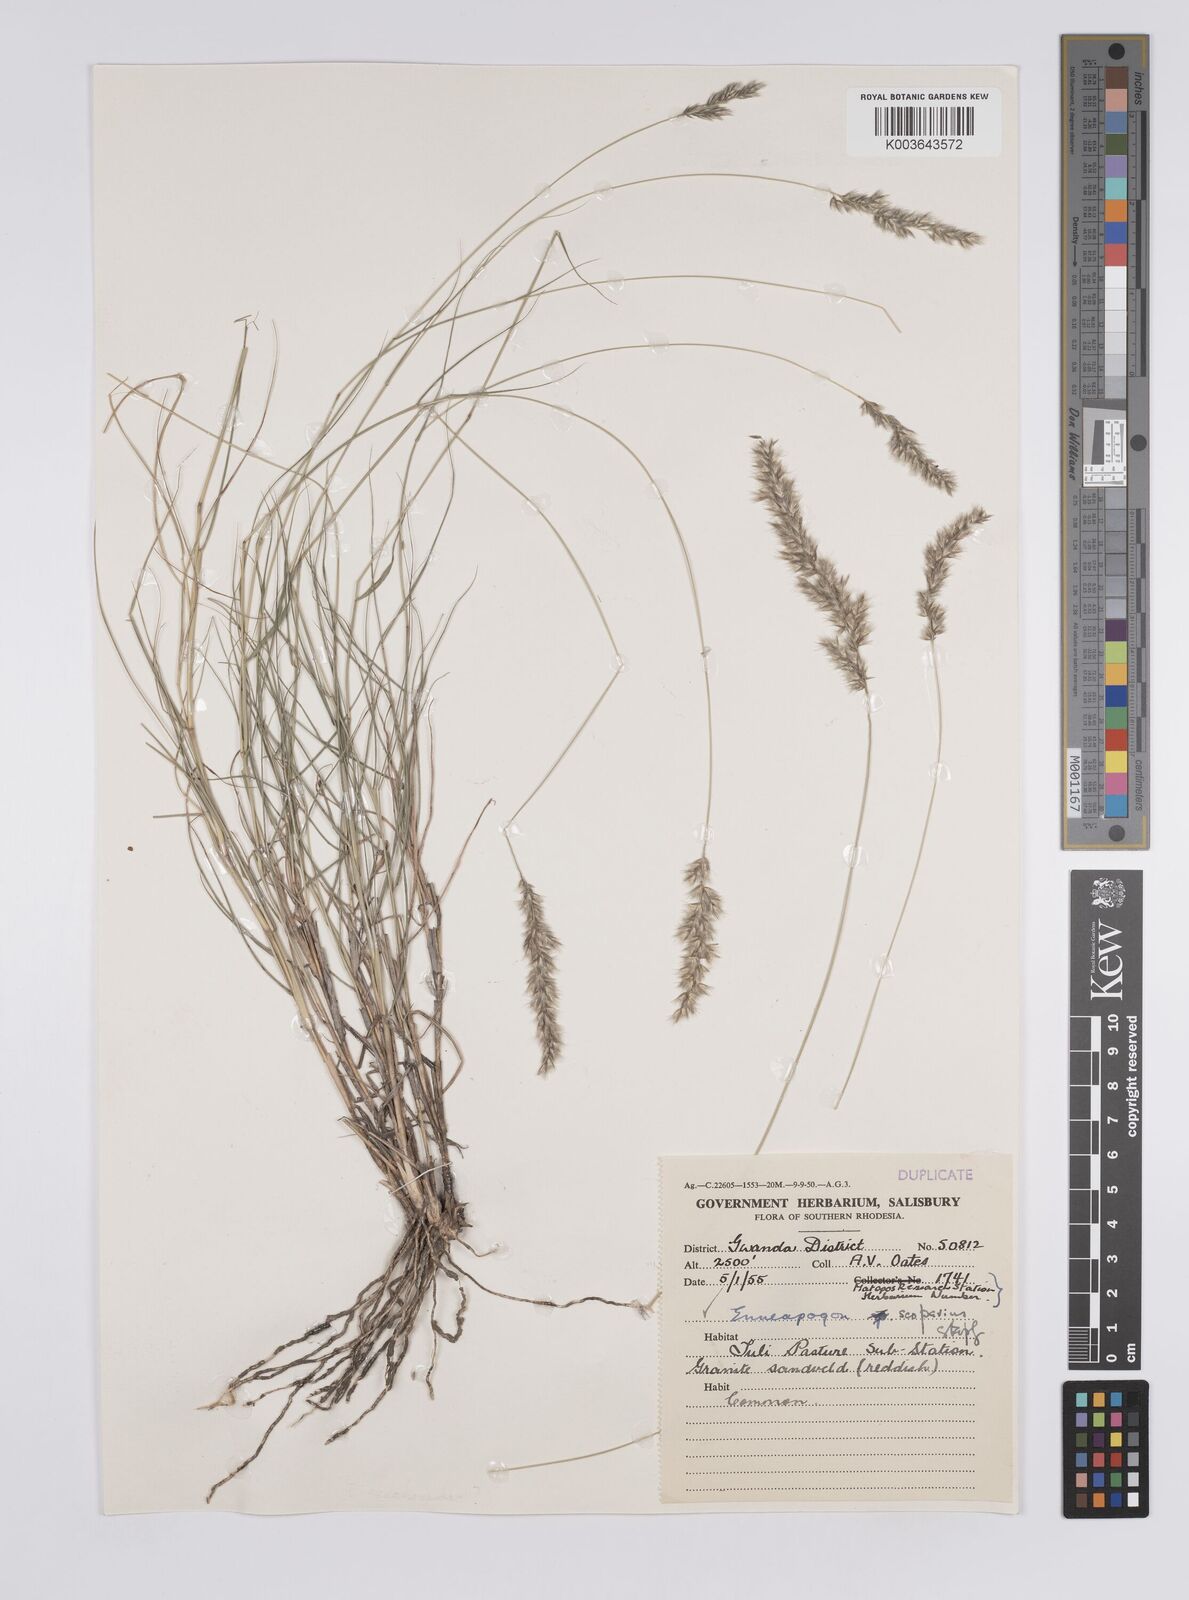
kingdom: Plantae
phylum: Tracheophyta
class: Liliopsida
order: Poales
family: Poaceae
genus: Enneapogon
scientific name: Enneapogon scoparius
